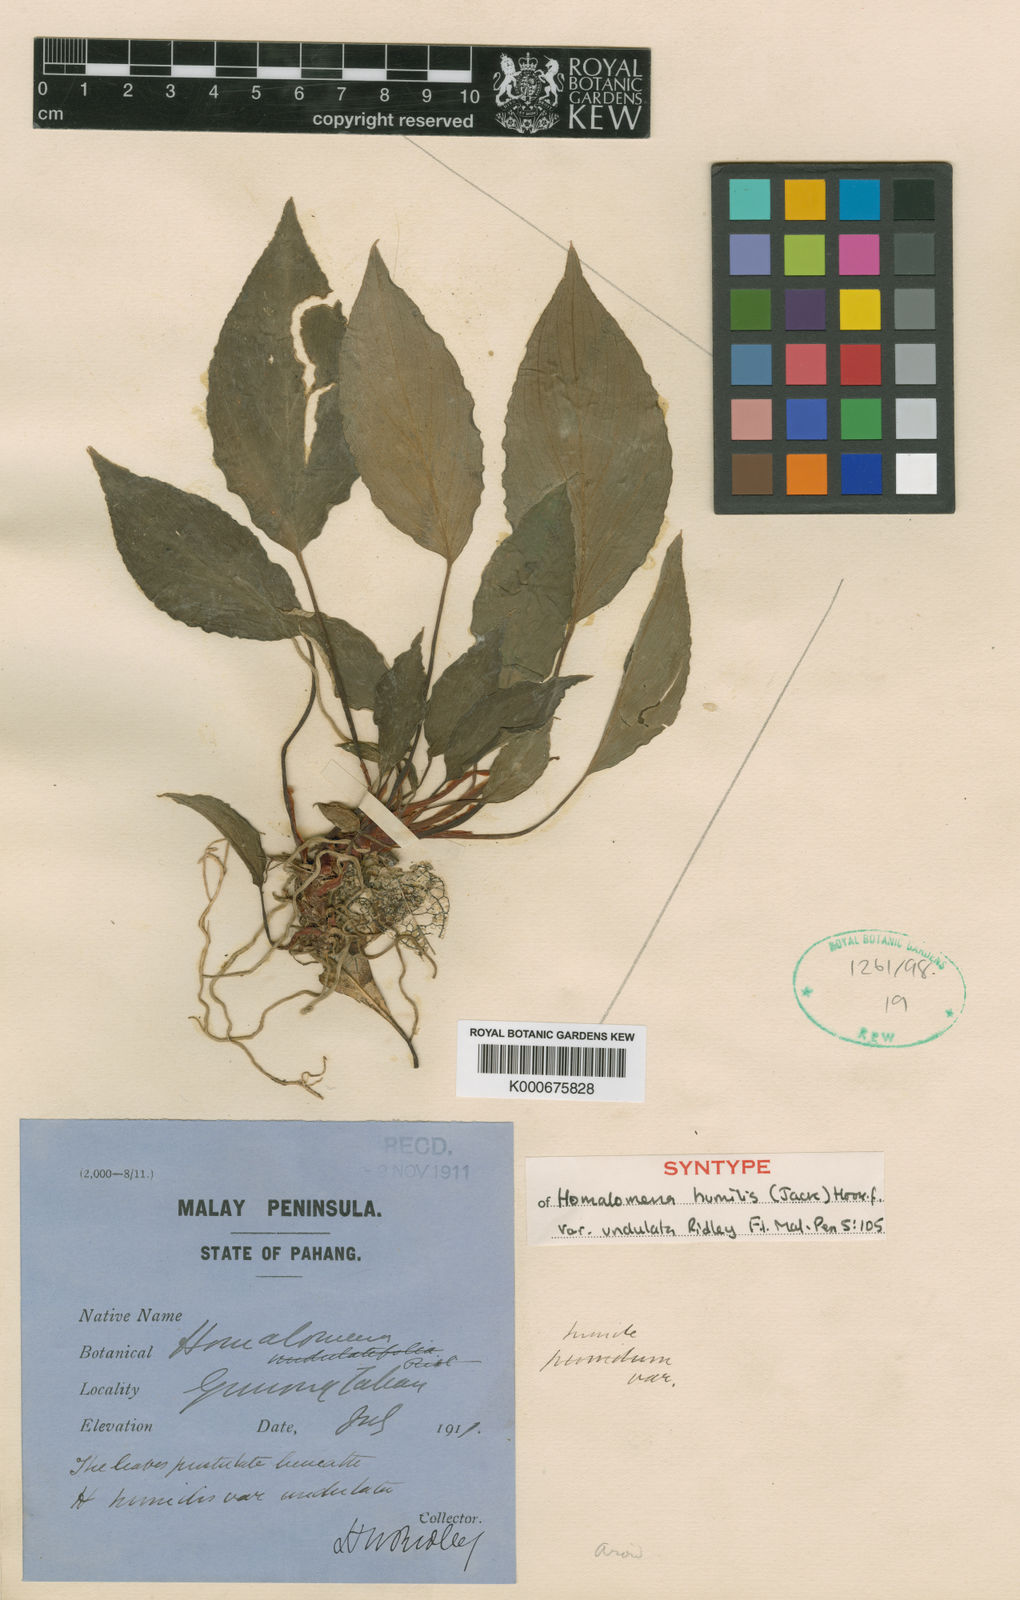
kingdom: Plantae
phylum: Tracheophyta
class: Liliopsida
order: Alismatales
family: Araceae
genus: Homalomena
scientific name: Homalomena humilis
